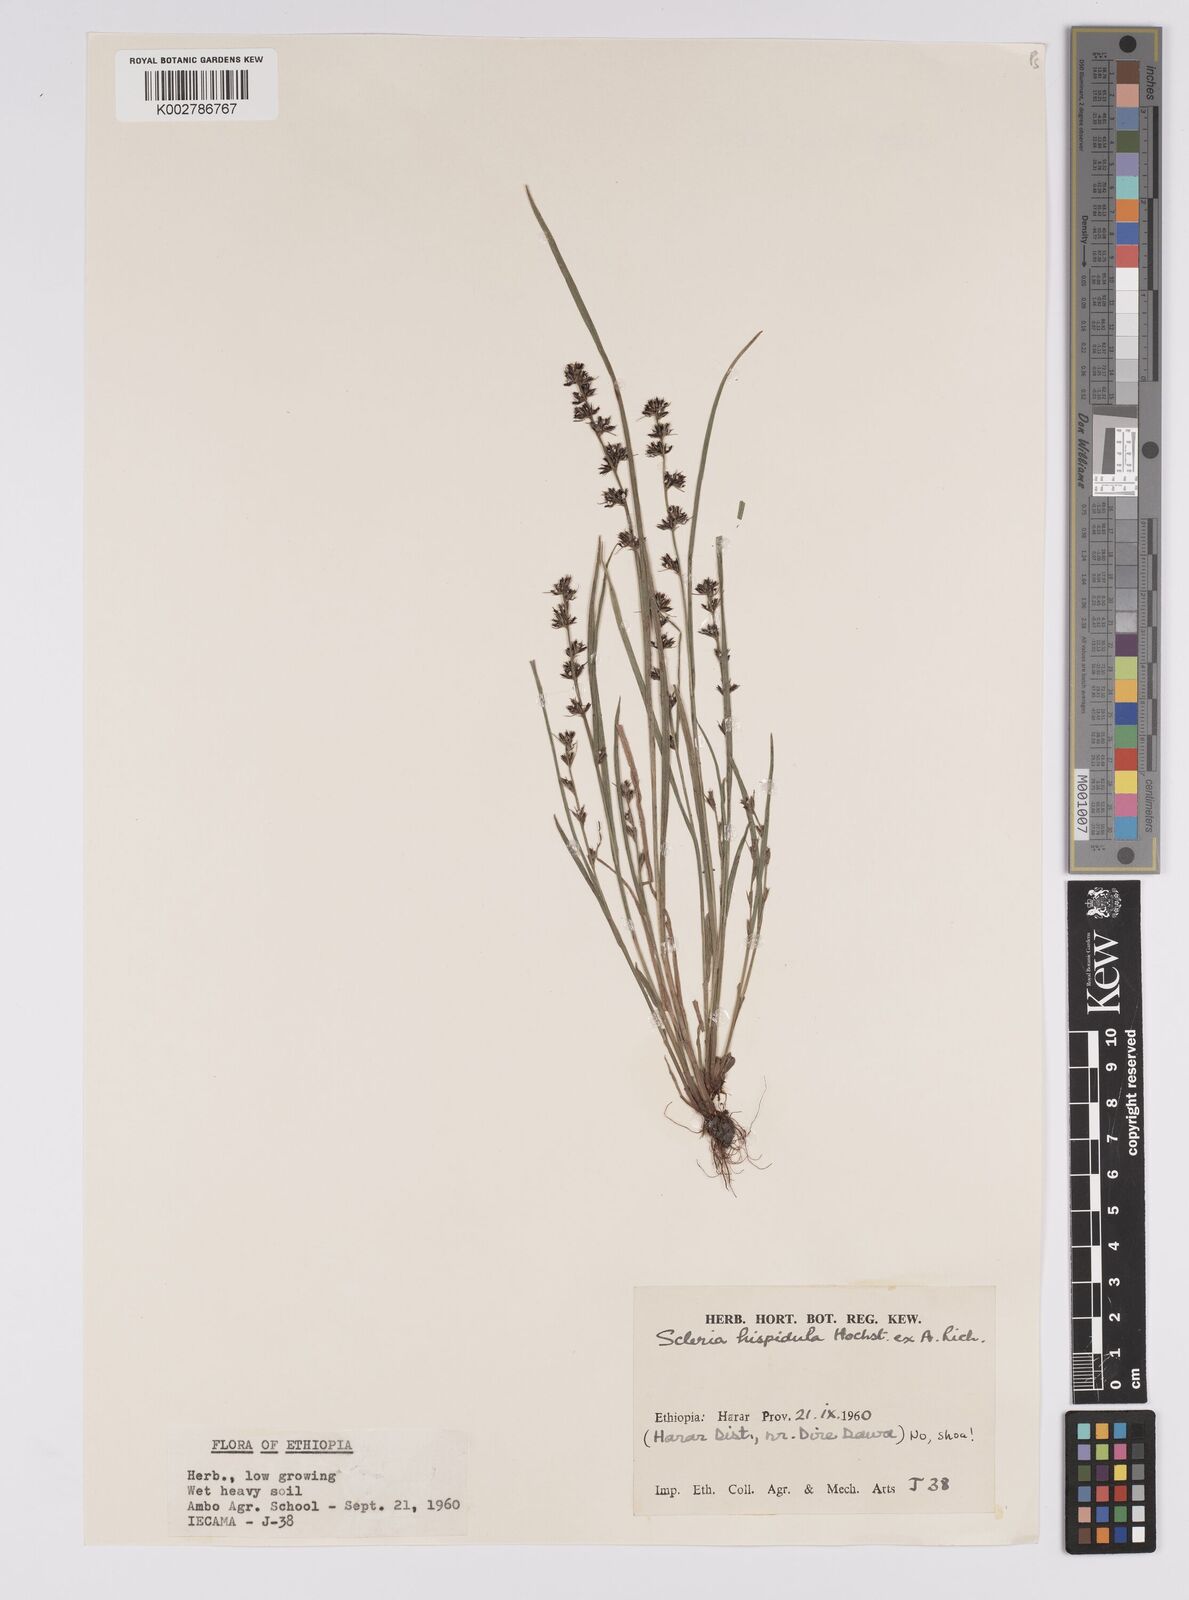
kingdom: Plantae
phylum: Tracheophyta
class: Liliopsida
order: Poales
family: Cyperaceae
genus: Scleria
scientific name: Scleria hispidula
